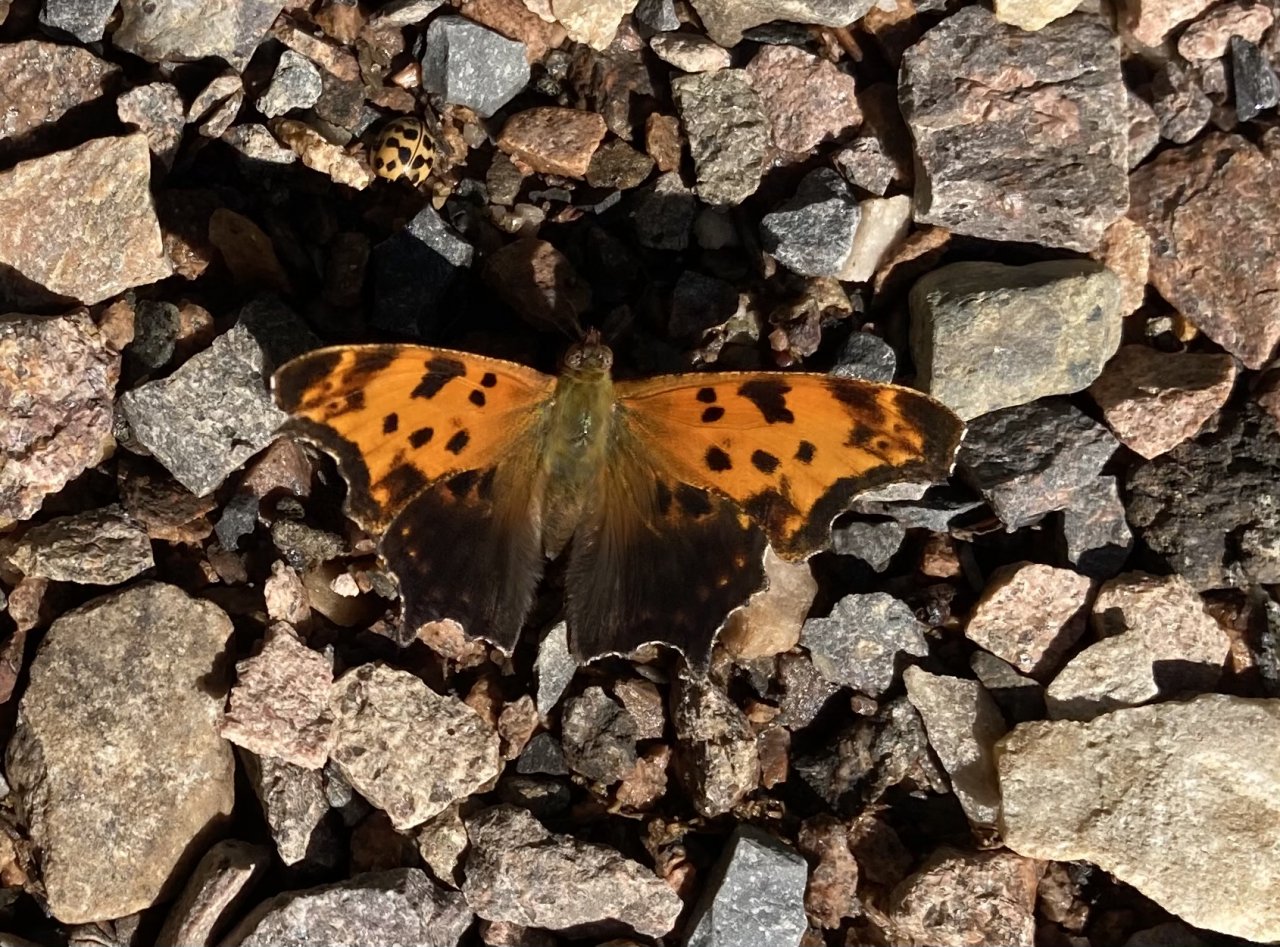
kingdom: Animalia
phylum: Arthropoda
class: Insecta
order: Lepidoptera
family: Nymphalidae
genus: Polygonia
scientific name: Polygonia comma
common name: Eastern Comma
